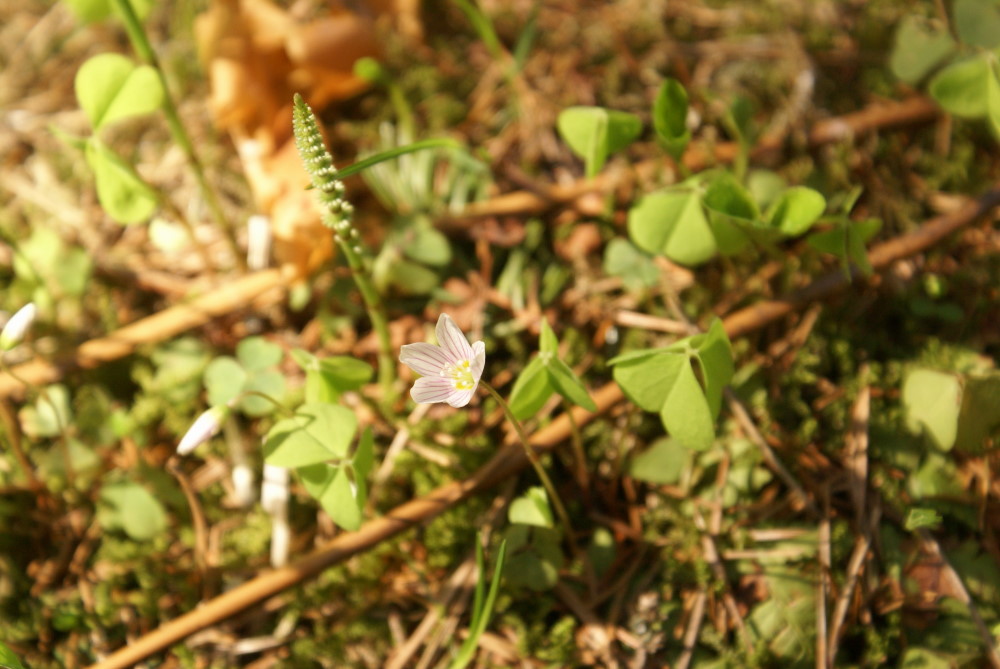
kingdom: Plantae
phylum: Tracheophyta
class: Magnoliopsida
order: Oxalidales
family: Oxalidaceae
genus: Oxalis
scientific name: Oxalis acetosella
